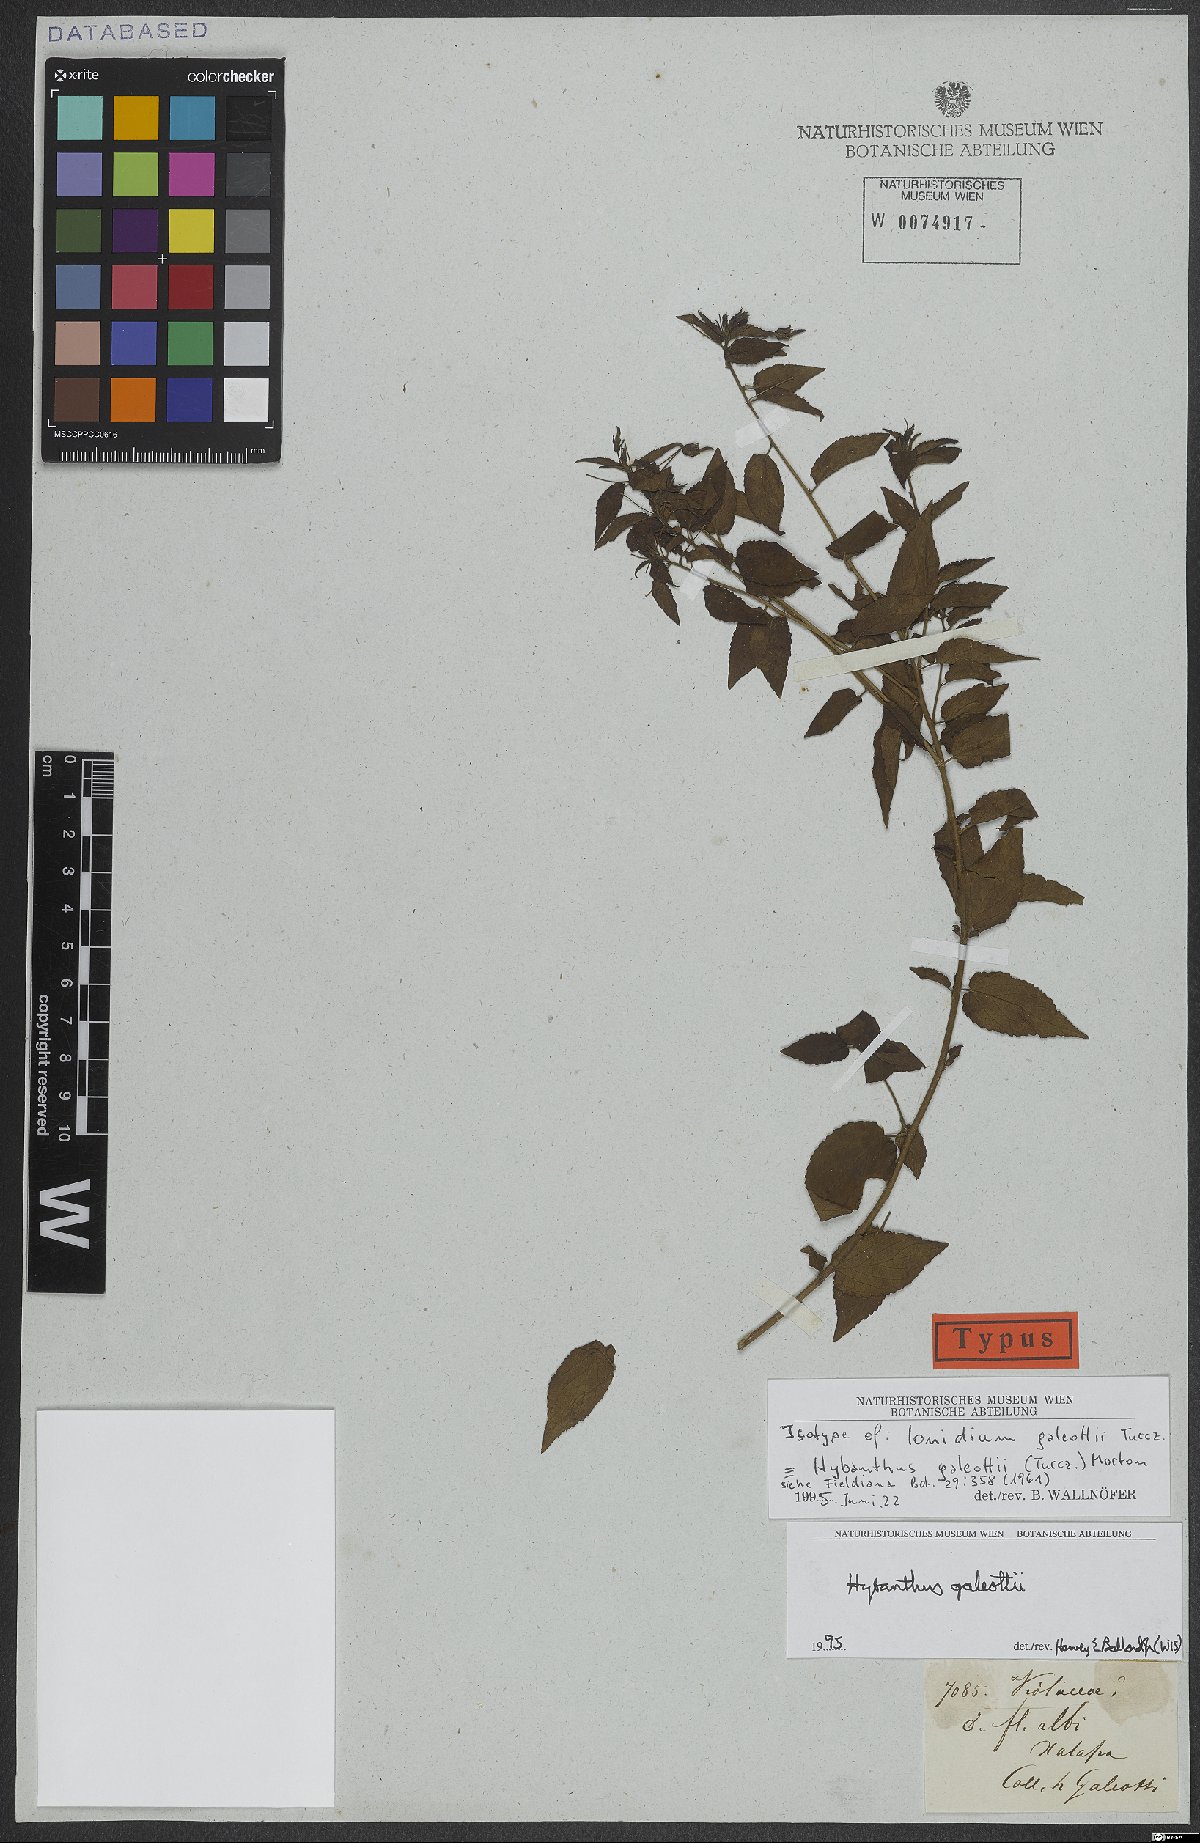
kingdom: Plantae
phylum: Tracheophyta
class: Magnoliopsida
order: Malpighiales
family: Violaceae
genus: Hybanthus
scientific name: Hybanthus galeottii
